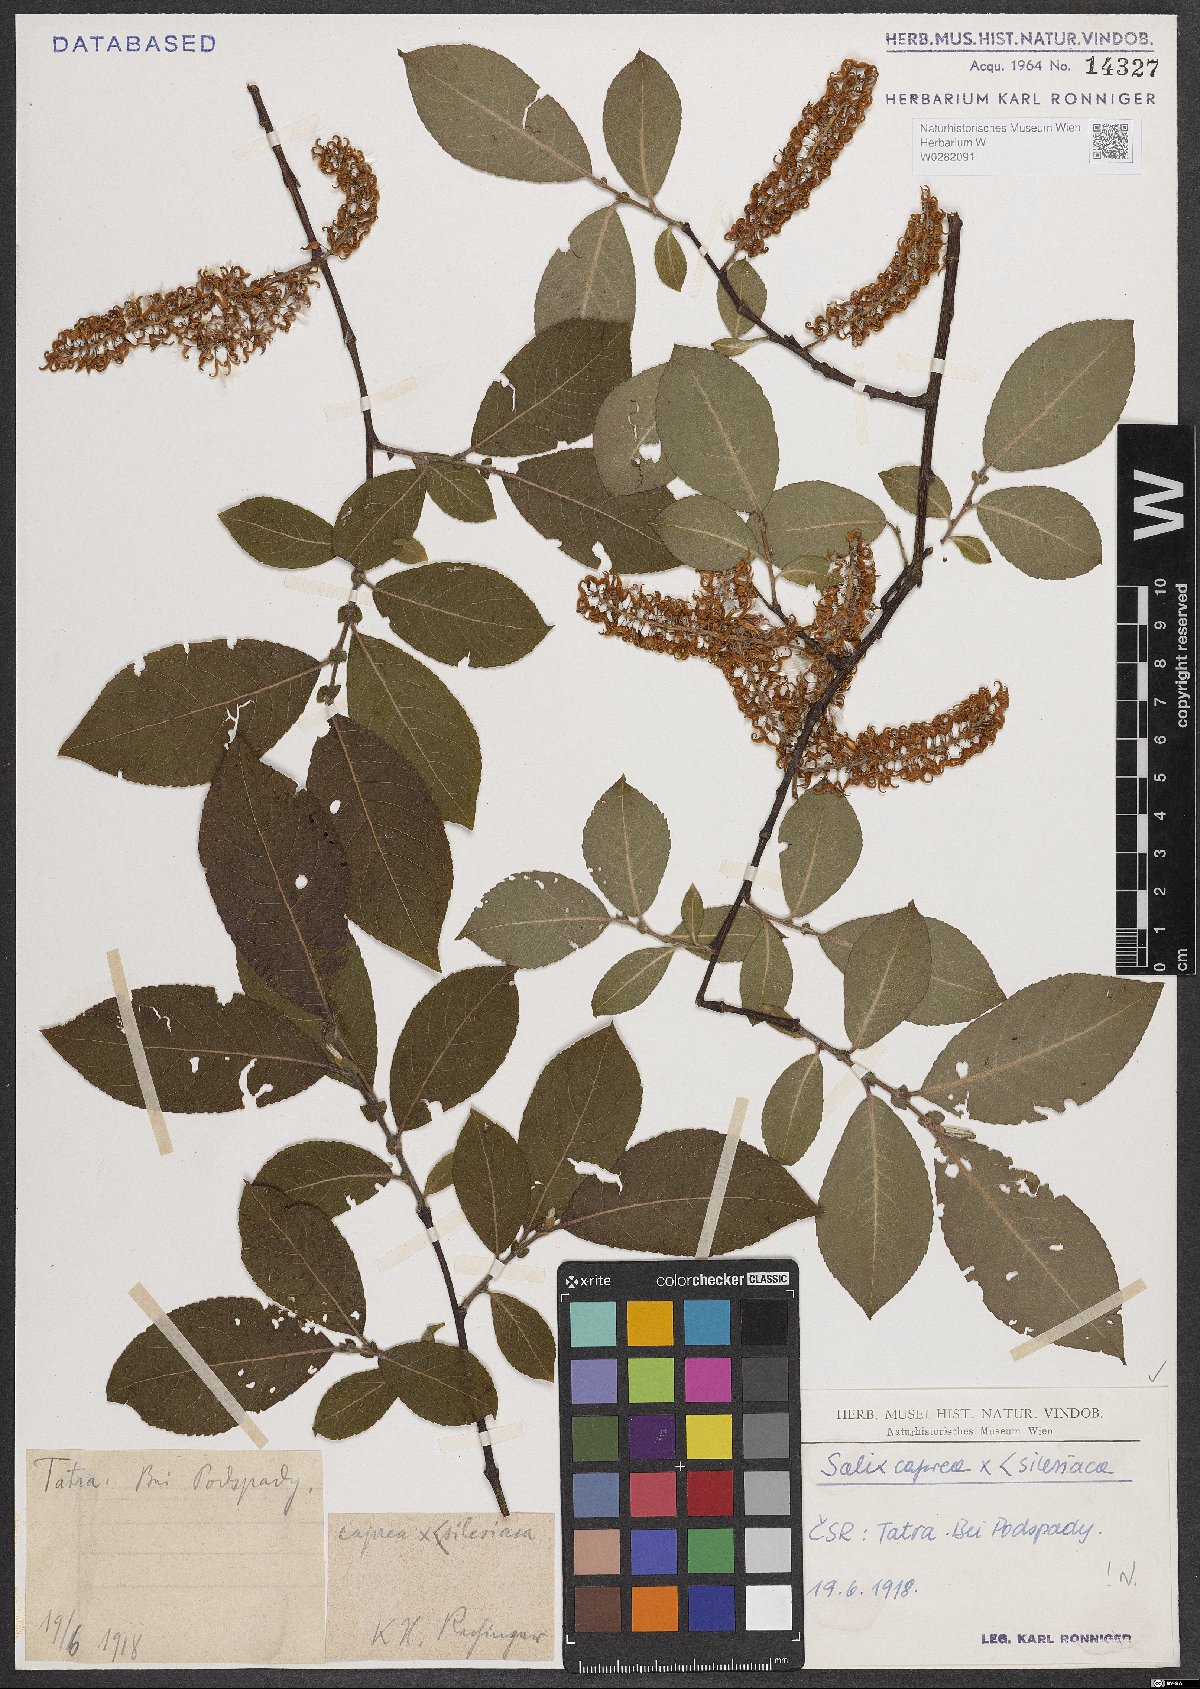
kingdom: Plantae
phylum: Tracheophyta
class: Magnoliopsida
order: Malpighiales
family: Salicaceae
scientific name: Salicaceae
